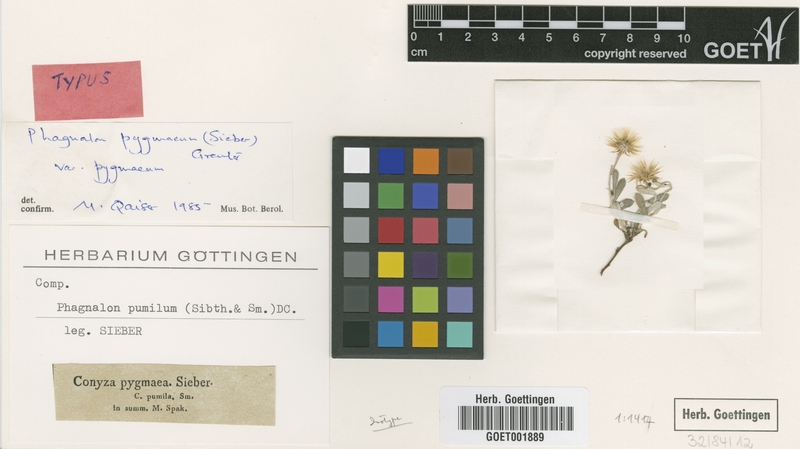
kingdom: Plantae
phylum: Tracheophyta
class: Magnoliopsida
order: Asterales
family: Asteraceae
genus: Phagnalon
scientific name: Phagnalon pygmaeum
